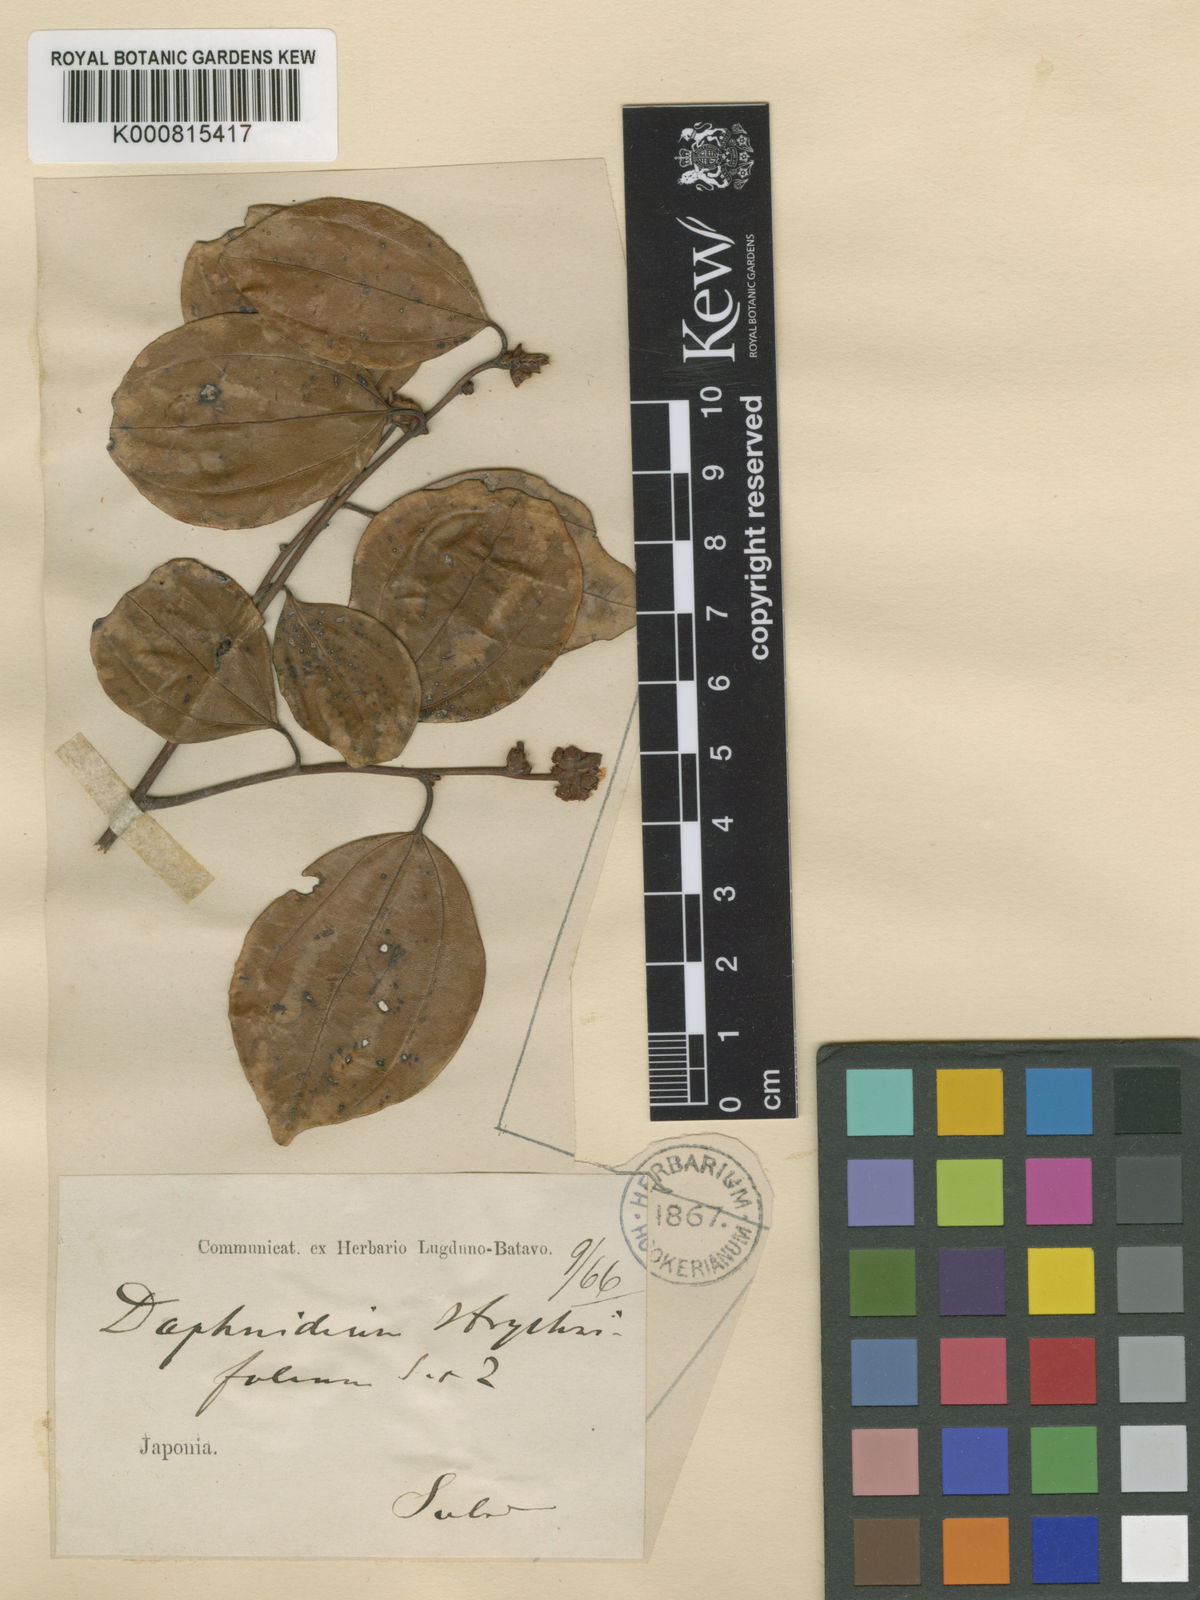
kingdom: Plantae
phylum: Tracheophyta
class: Magnoliopsida
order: Laurales
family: Lauraceae
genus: Lindera
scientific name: Lindera aggregata
